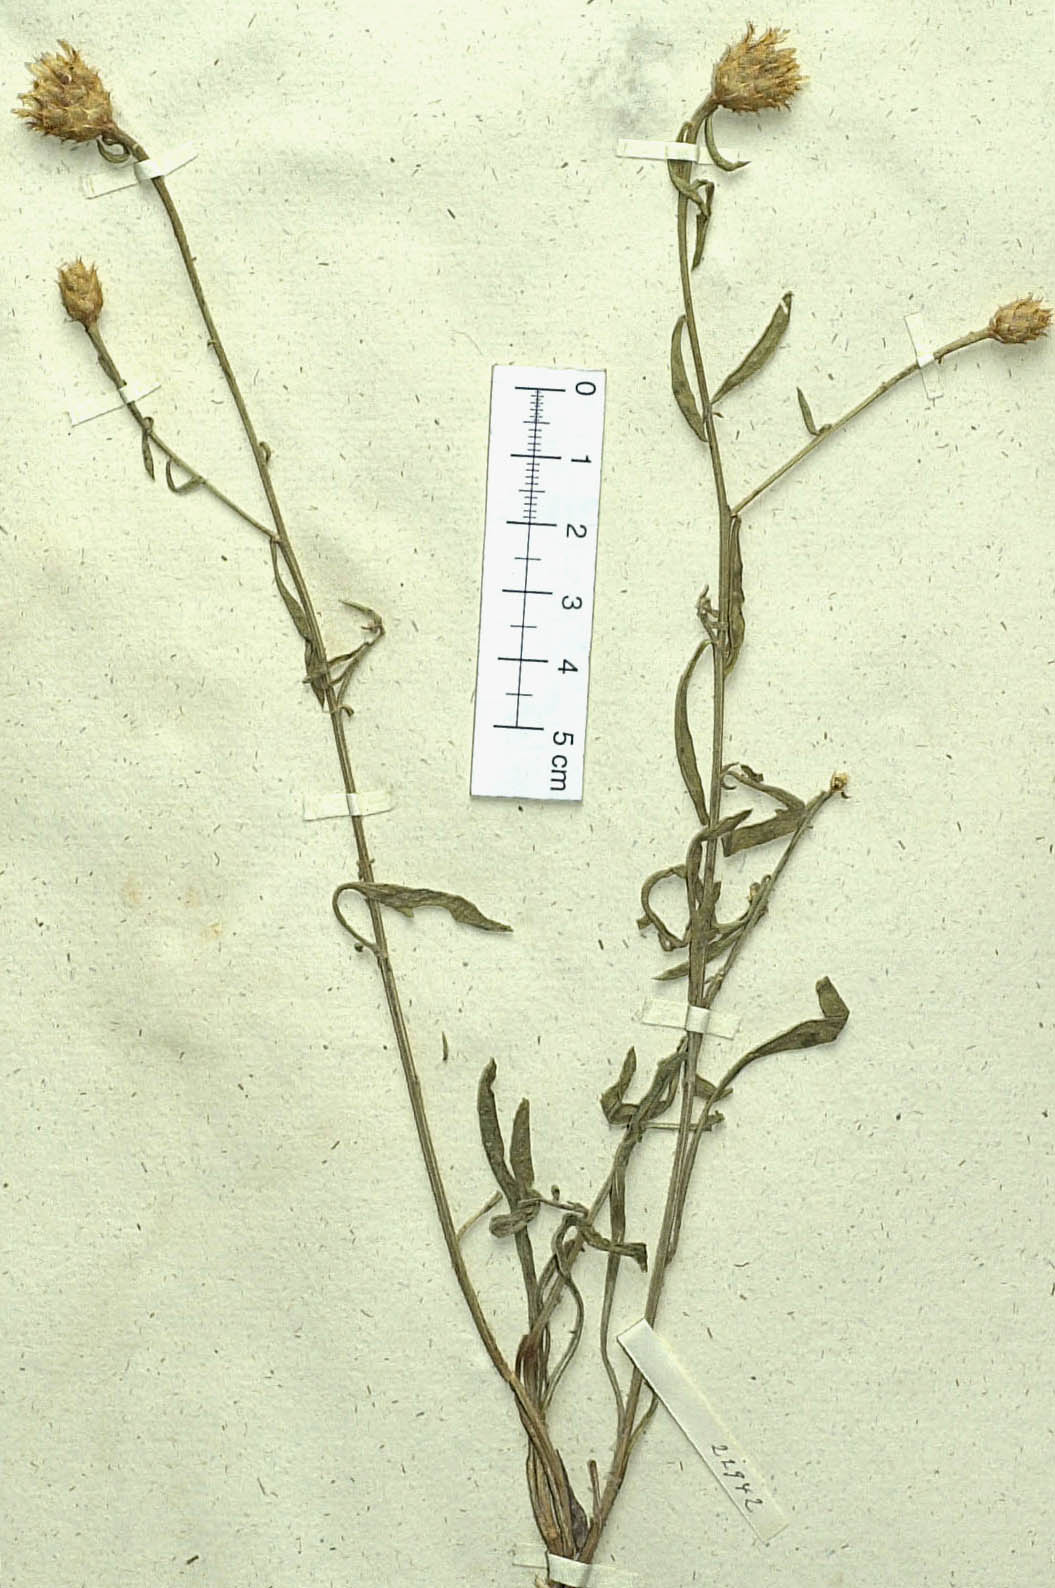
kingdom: Plantae
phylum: Tracheophyta
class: Magnoliopsida
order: Asterales
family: Asteraceae
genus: Centaurea
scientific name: Centaurea monticola
